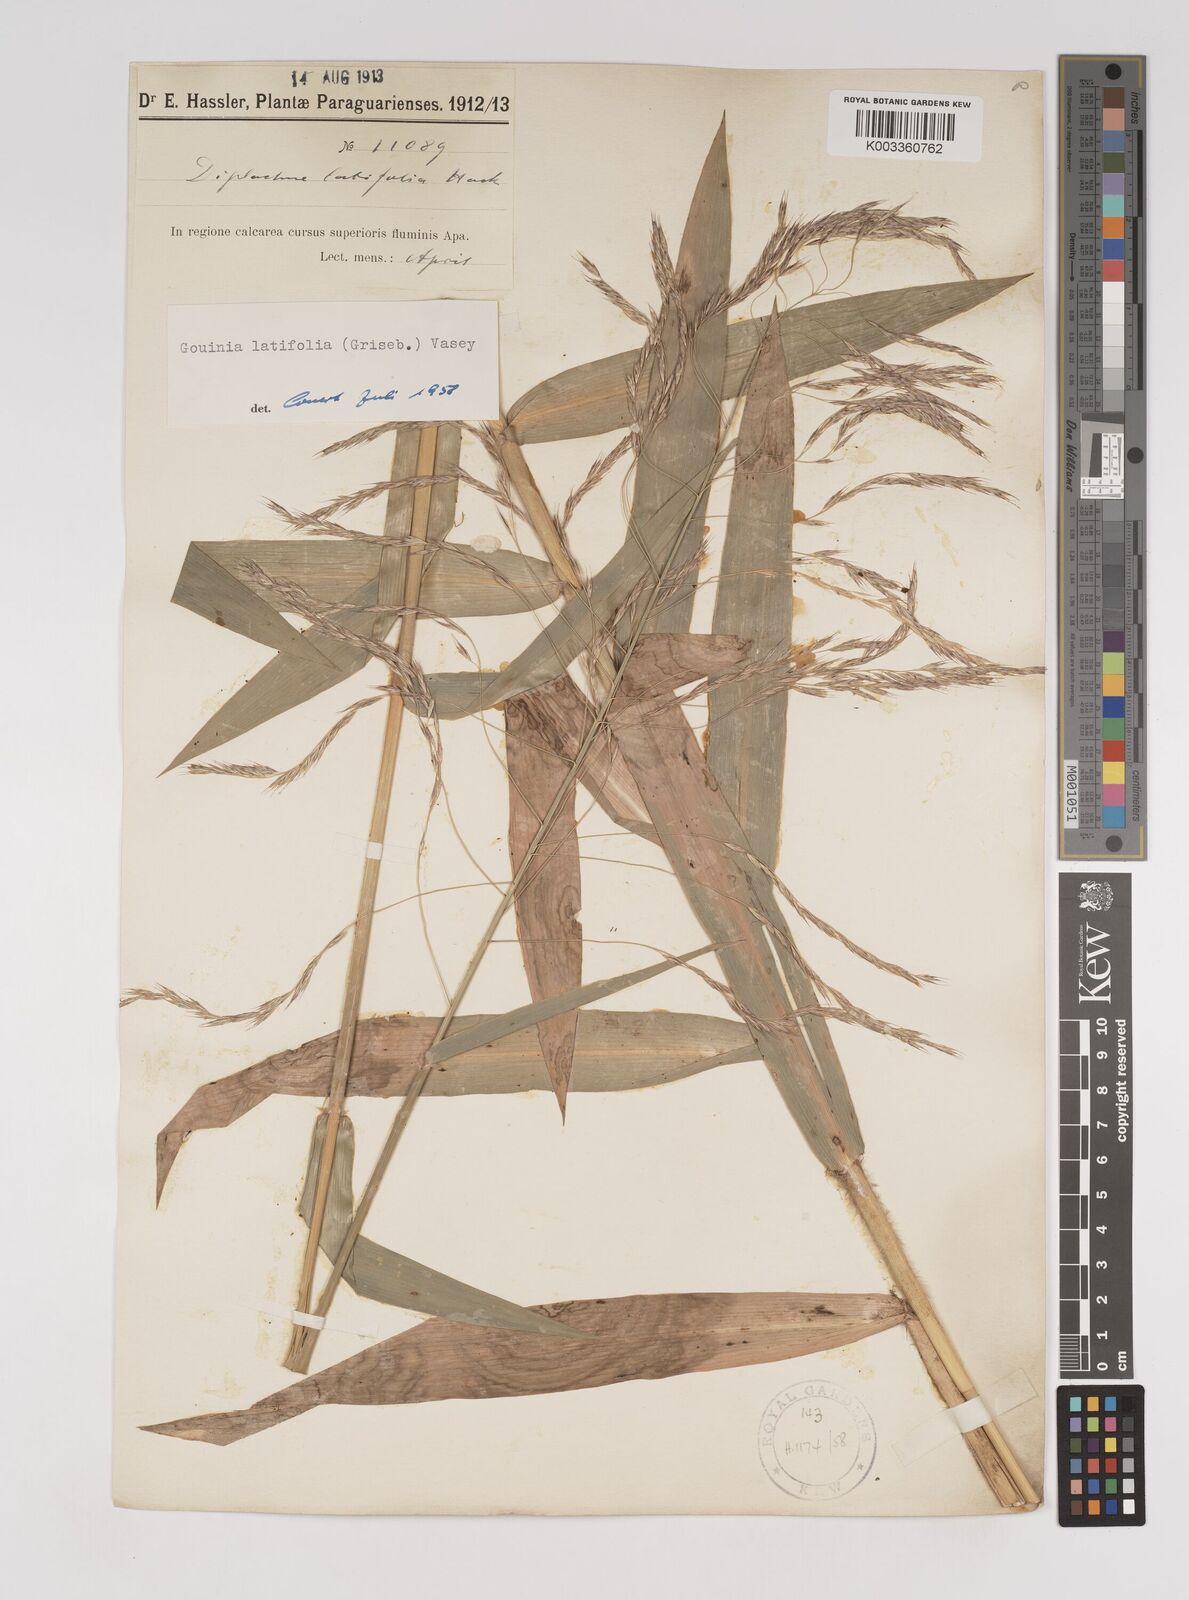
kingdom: Plantae
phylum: Tracheophyta
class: Liliopsida
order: Poales
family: Poaceae
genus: Gouinia
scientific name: Gouinia latifolia
